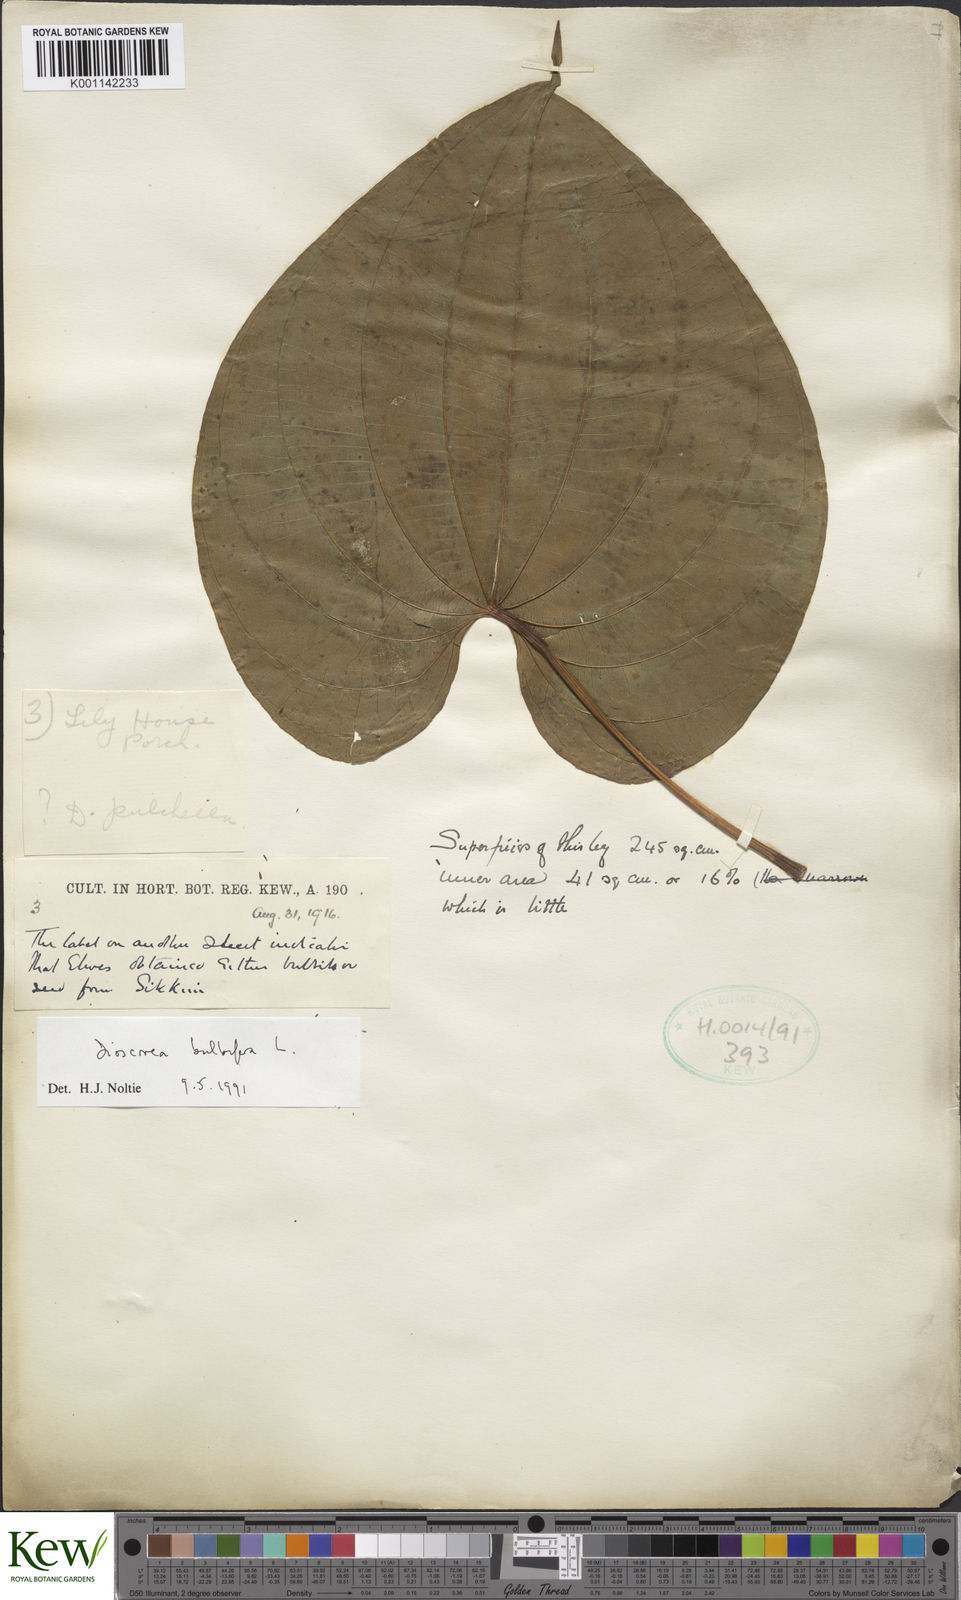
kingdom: Plantae
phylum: Tracheophyta
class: Liliopsida
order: Dioscoreales
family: Dioscoreaceae
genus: Dioscorea
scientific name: Dioscorea bulbifera
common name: Air yam
